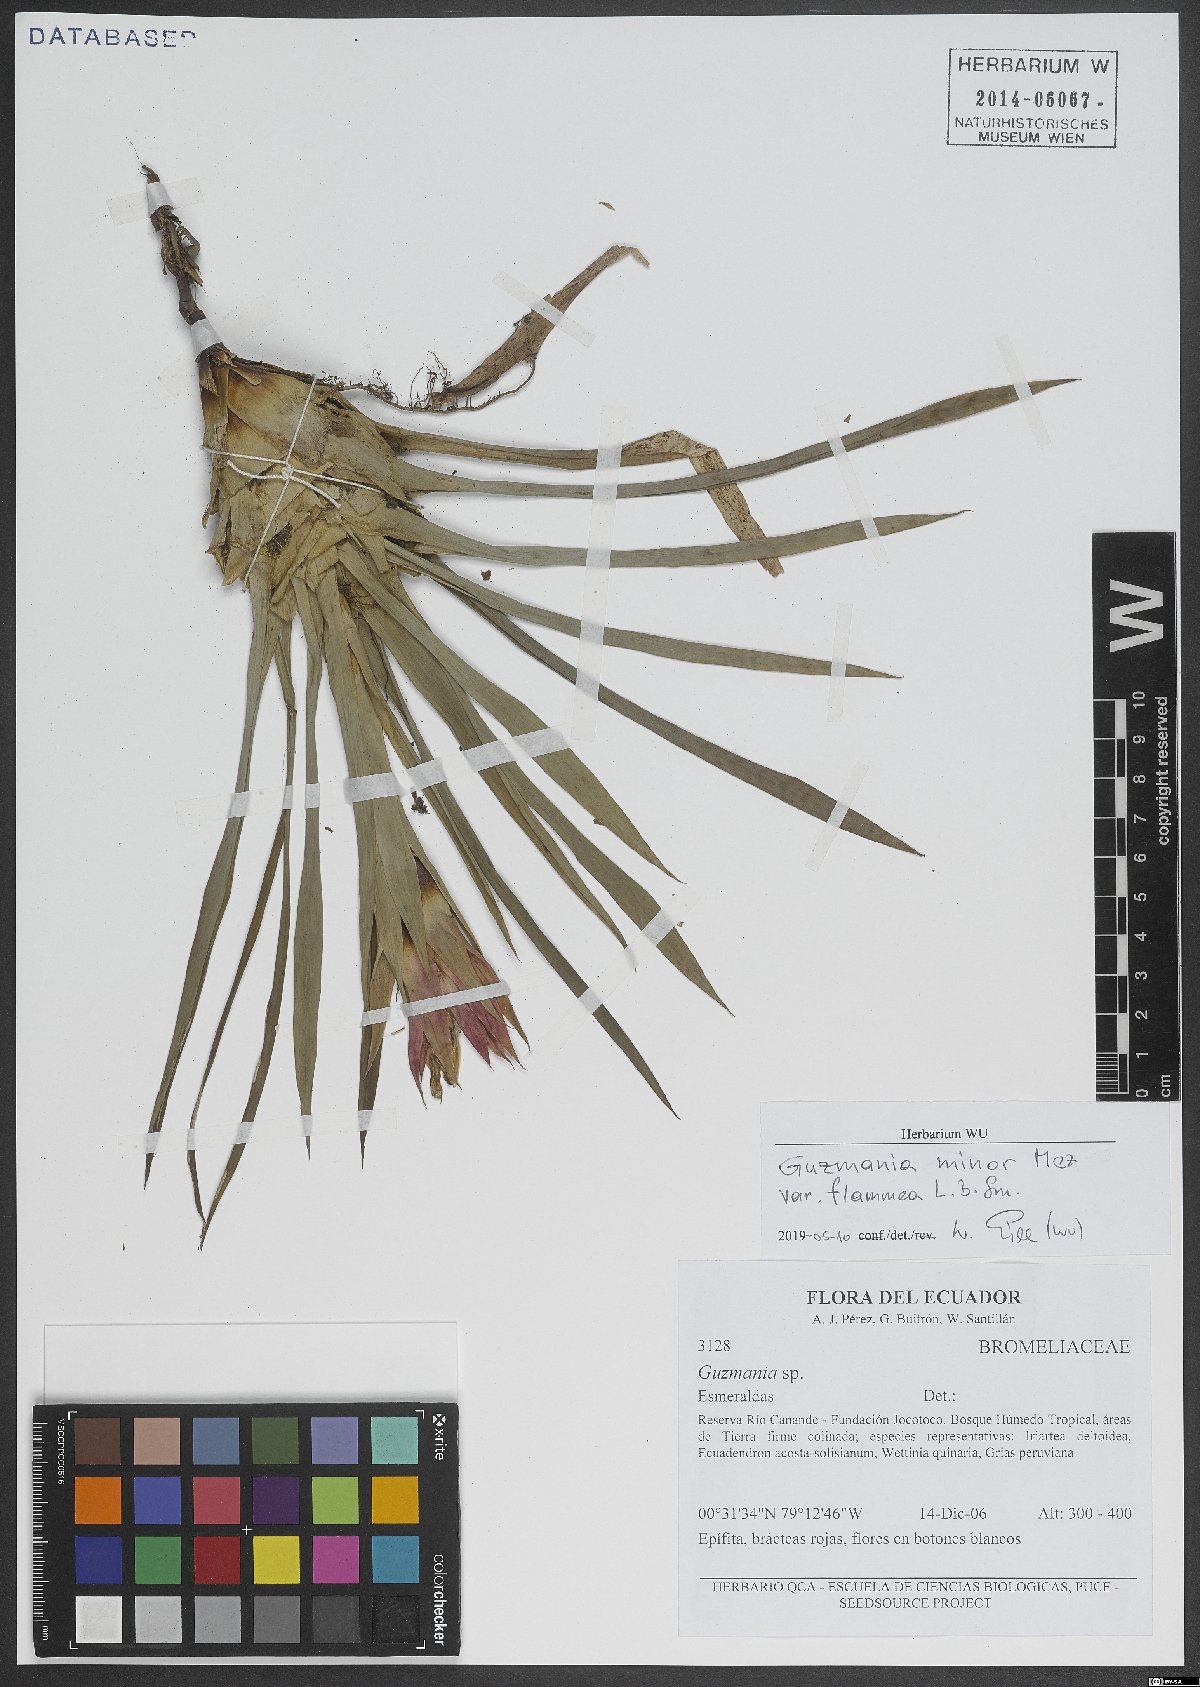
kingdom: Plantae
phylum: Tracheophyta
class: Liliopsida
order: Poales
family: Bromeliaceae
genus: Guzmania
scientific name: Guzmania lingulata
